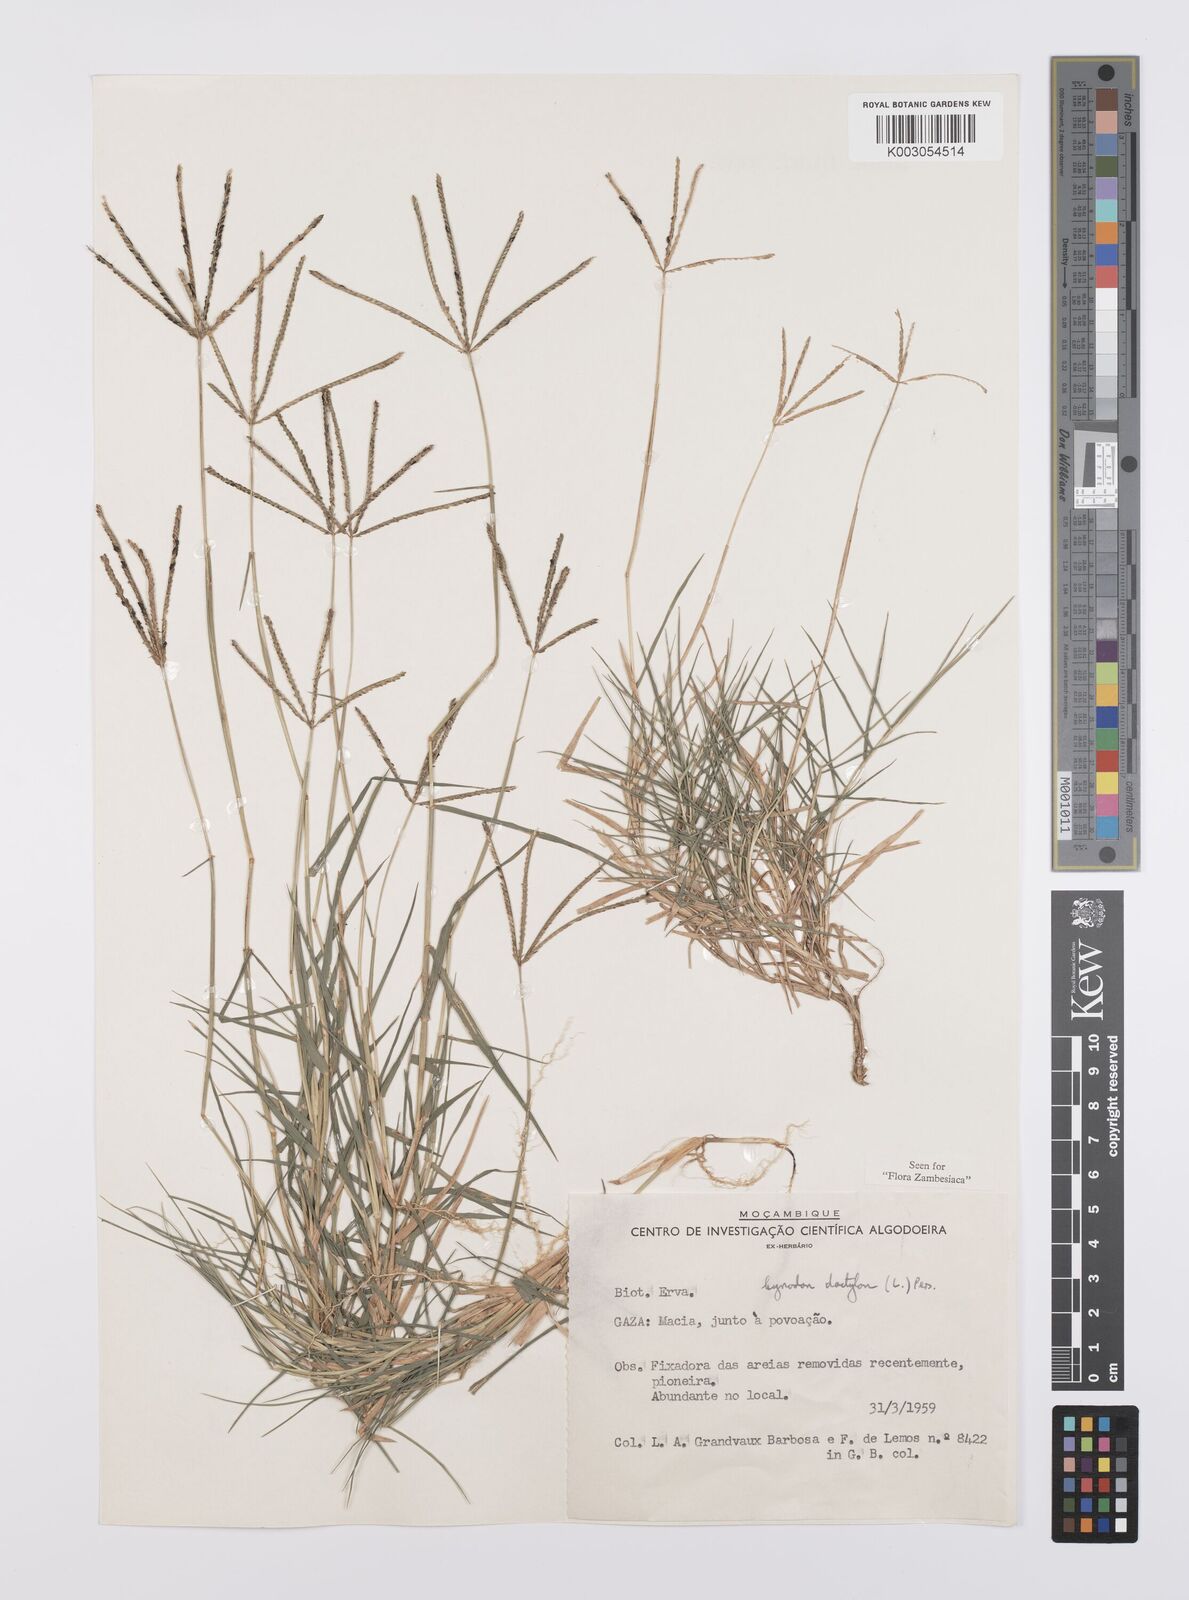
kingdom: Plantae
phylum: Tracheophyta
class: Liliopsida
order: Poales
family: Poaceae
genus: Cynodon
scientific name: Cynodon dactylon
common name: Bermuda grass
